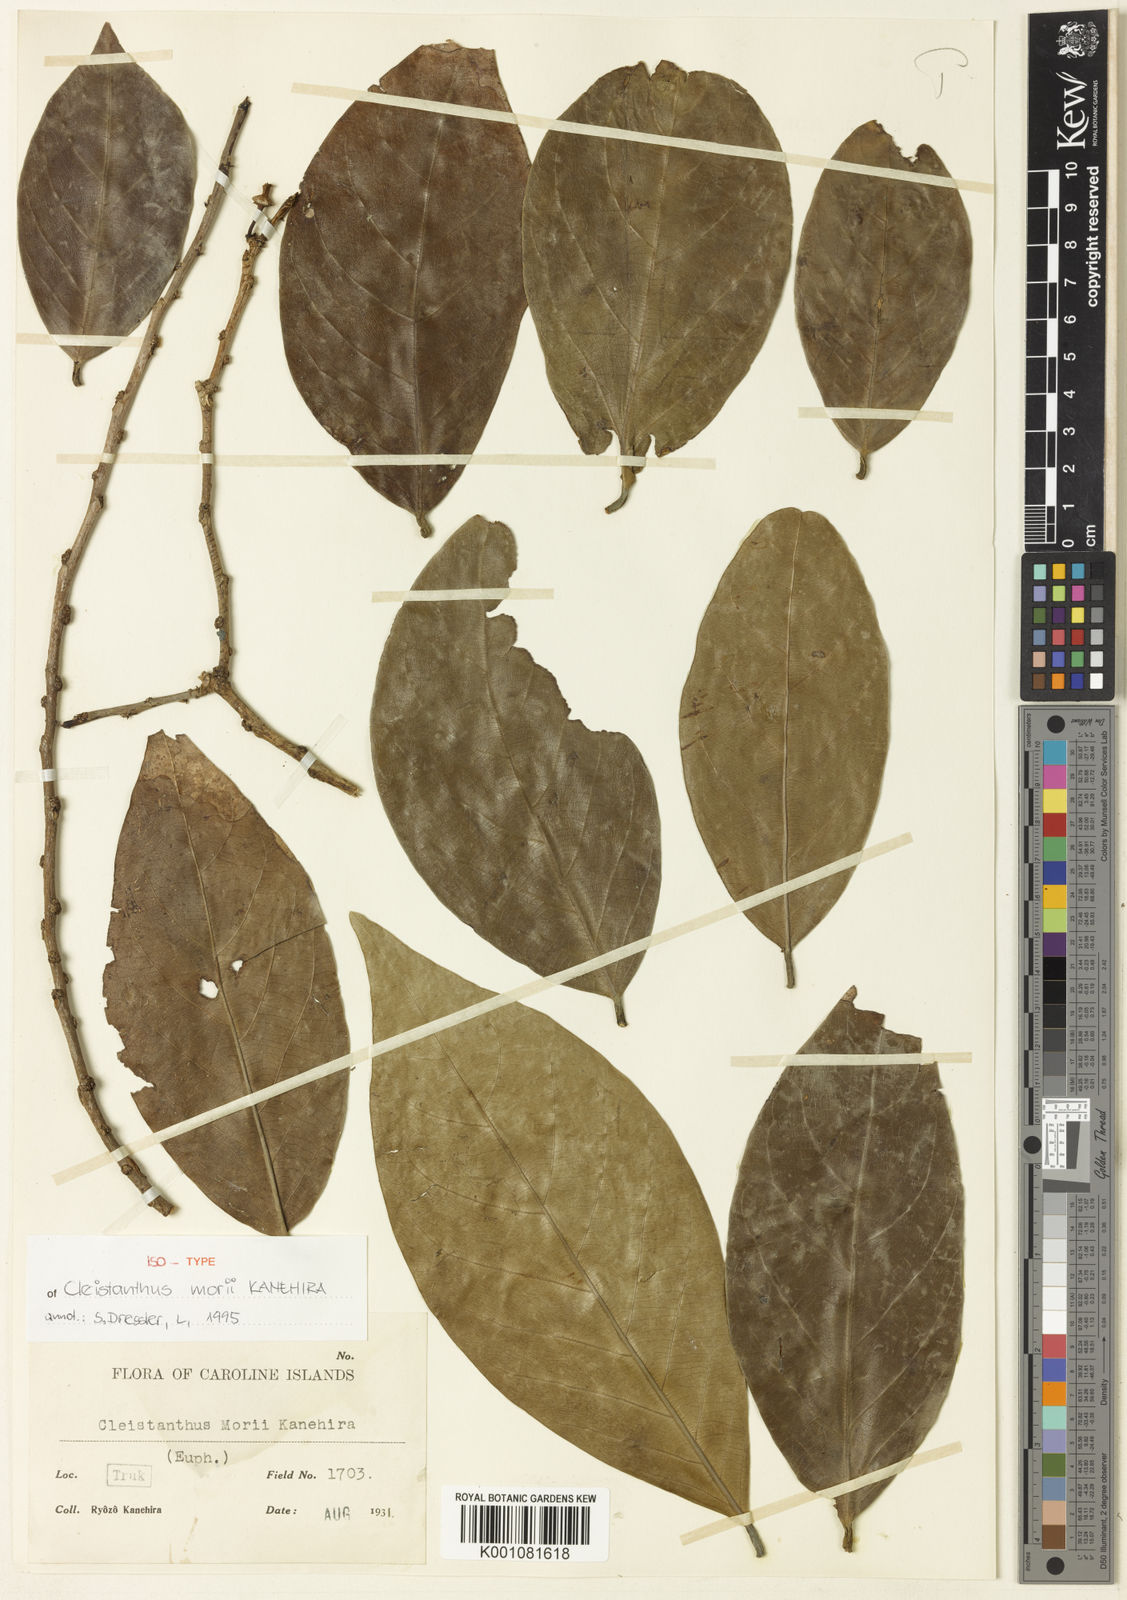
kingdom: Plantae
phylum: Tracheophyta
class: Magnoliopsida
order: Malpighiales
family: Phyllanthaceae
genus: Cleistanthus
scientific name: Cleistanthus morii
